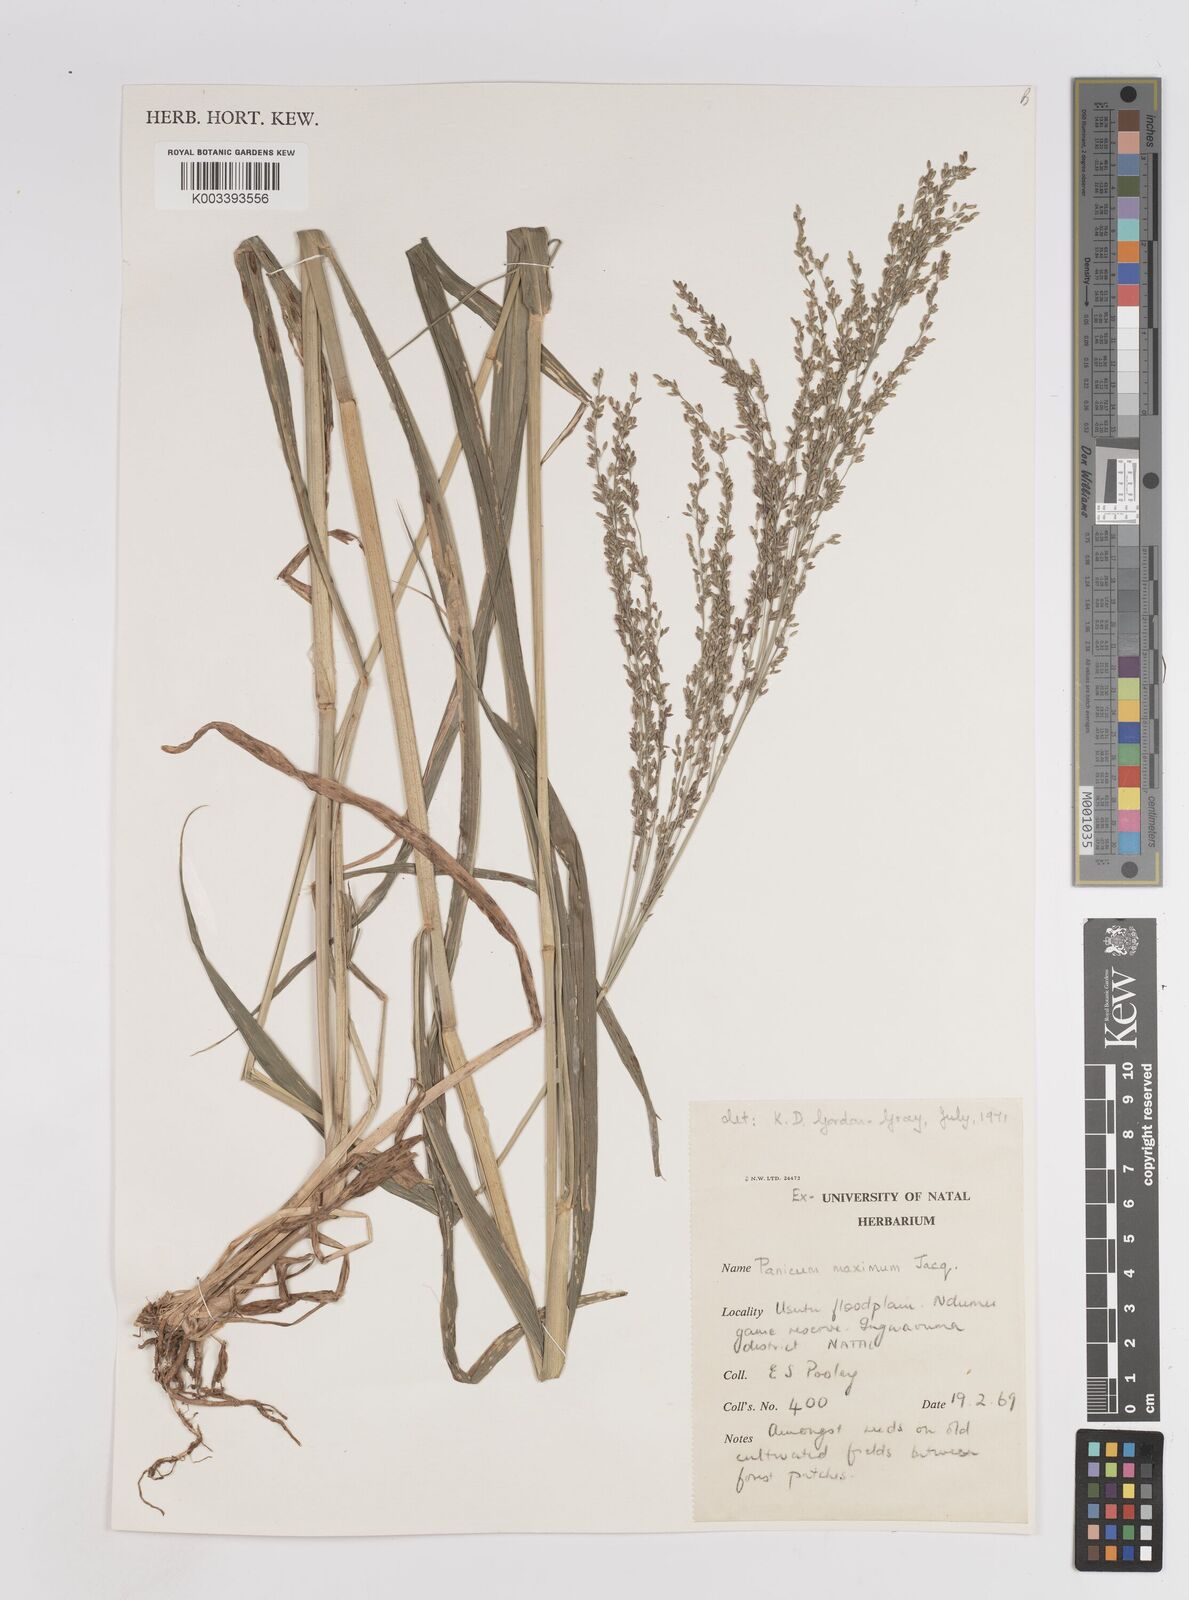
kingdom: Plantae
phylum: Tracheophyta
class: Liliopsida
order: Poales
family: Poaceae
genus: Megathyrsus
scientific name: Megathyrsus maximus
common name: Guineagrass
